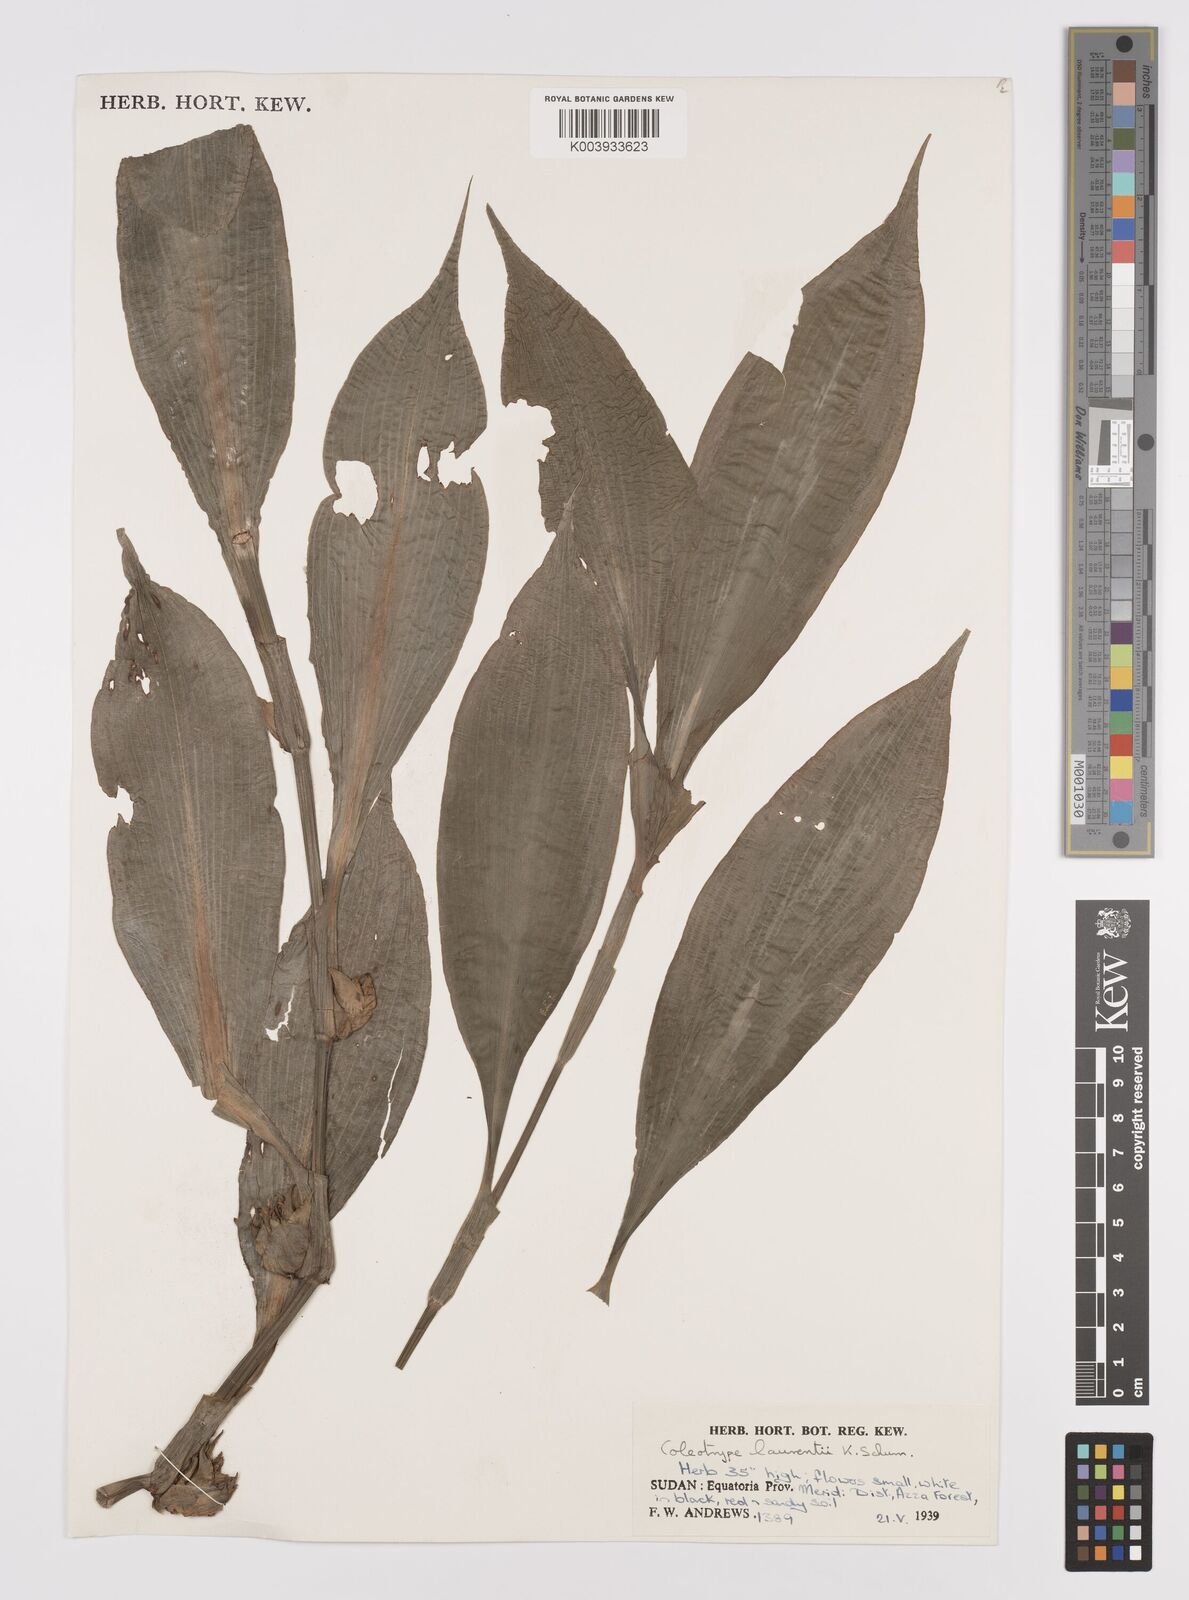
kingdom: Plantae
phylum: Tracheophyta
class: Liliopsida
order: Commelinales
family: Commelinaceae
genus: Coleotrype
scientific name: Coleotrype laurentii
